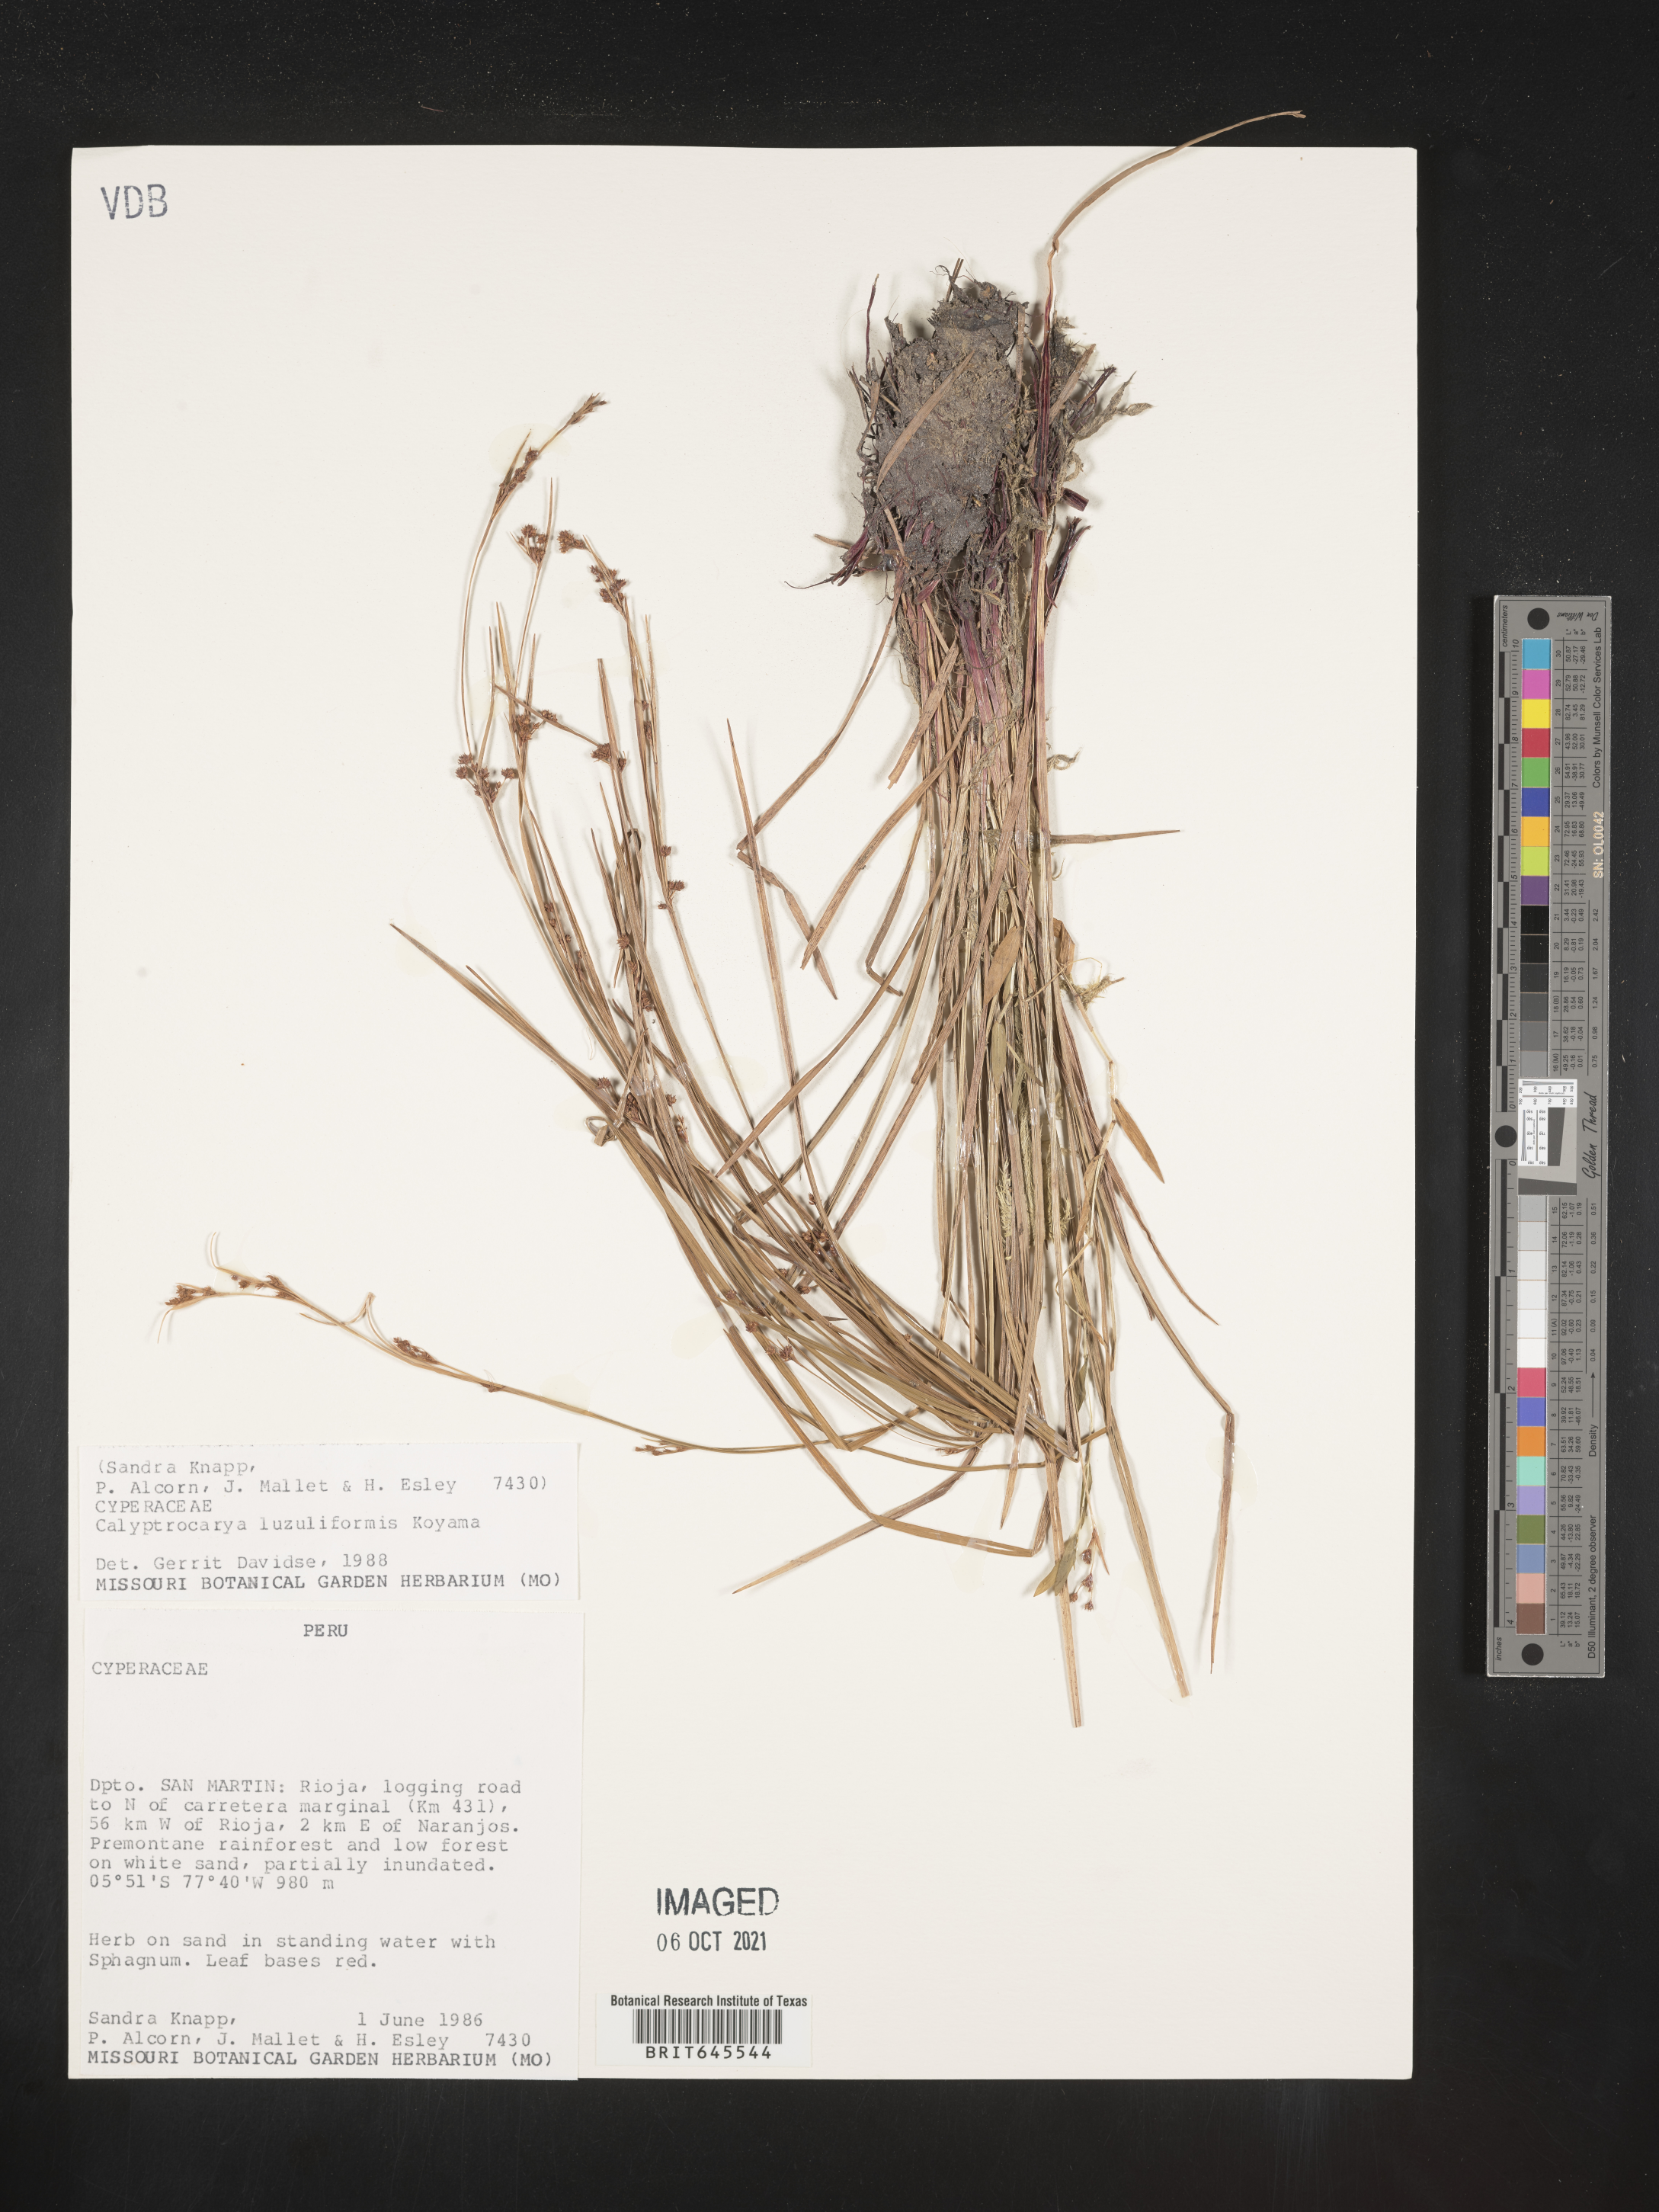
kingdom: Plantae
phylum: Tracheophyta
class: Liliopsida
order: Poales
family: Cyperaceae
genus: Calyptrocarya
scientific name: Calyptrocarya luzuliformis
